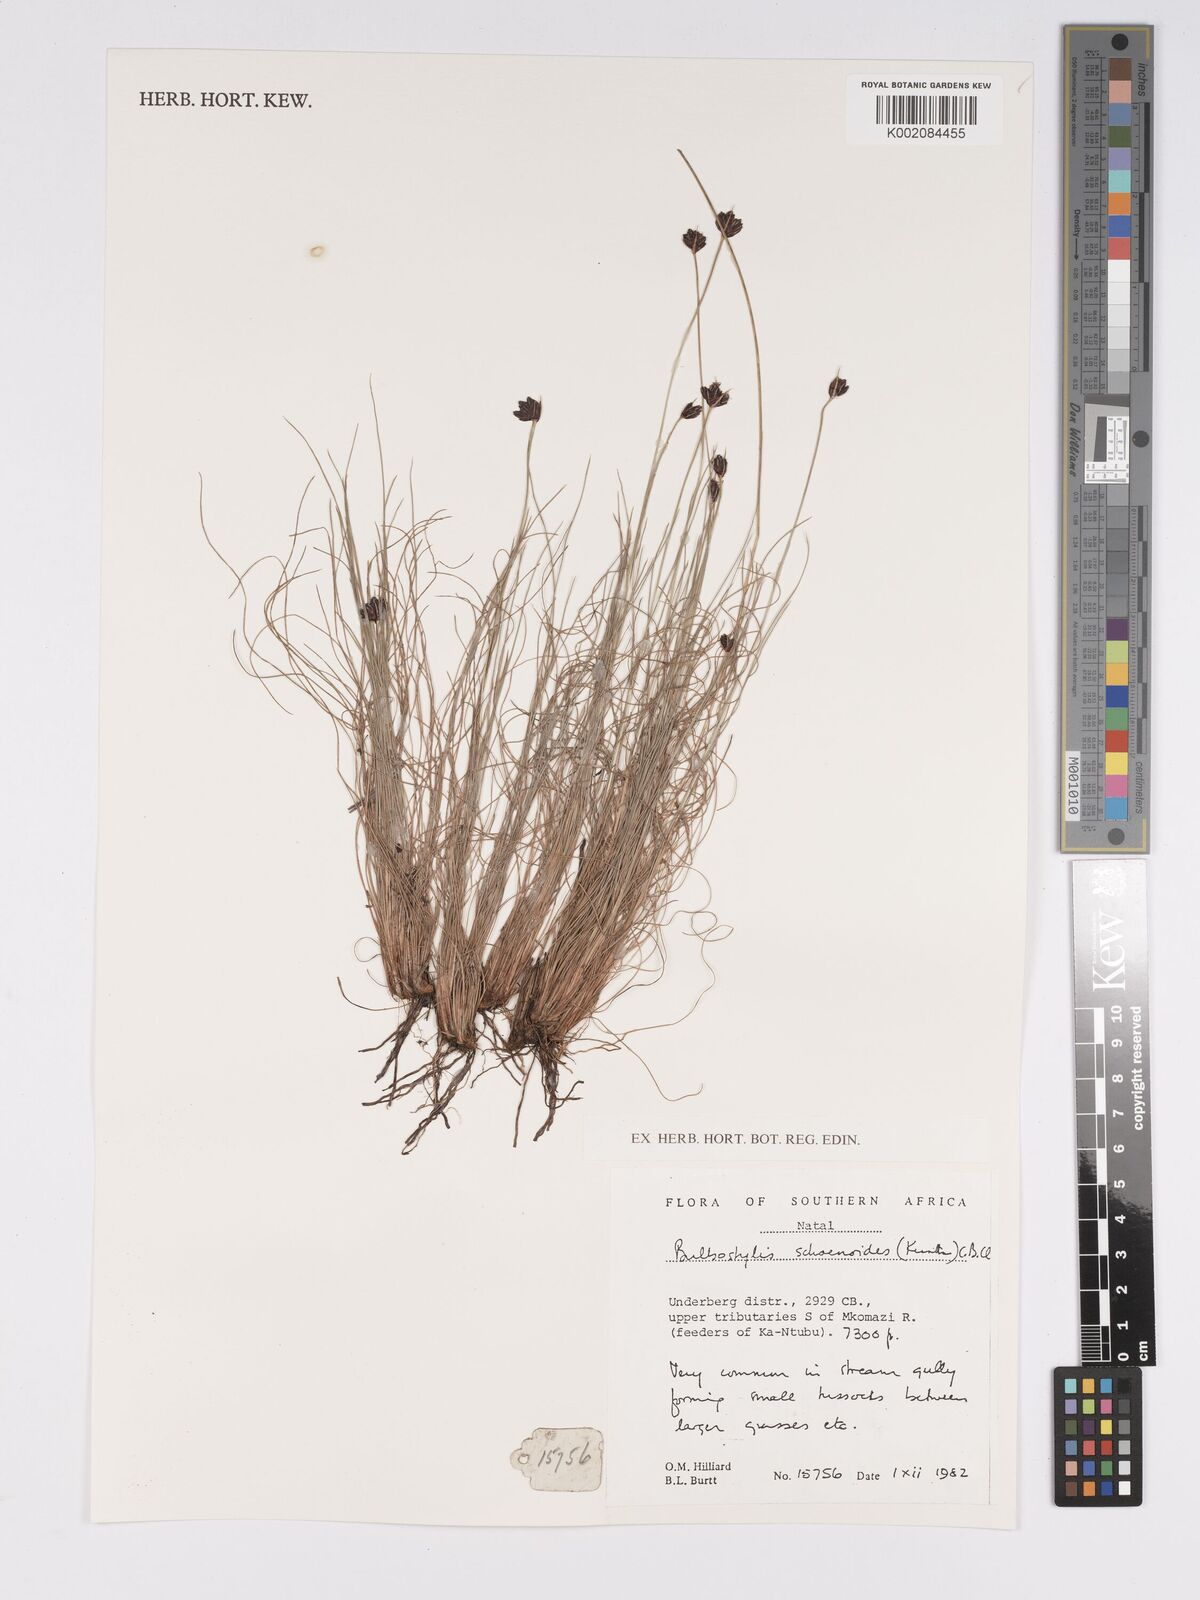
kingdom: Plantae
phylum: Tracheophyta
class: Liliopsida
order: Poales
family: Cyperaceae
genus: Bulbostylis
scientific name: Bulbostylis schoenoides
